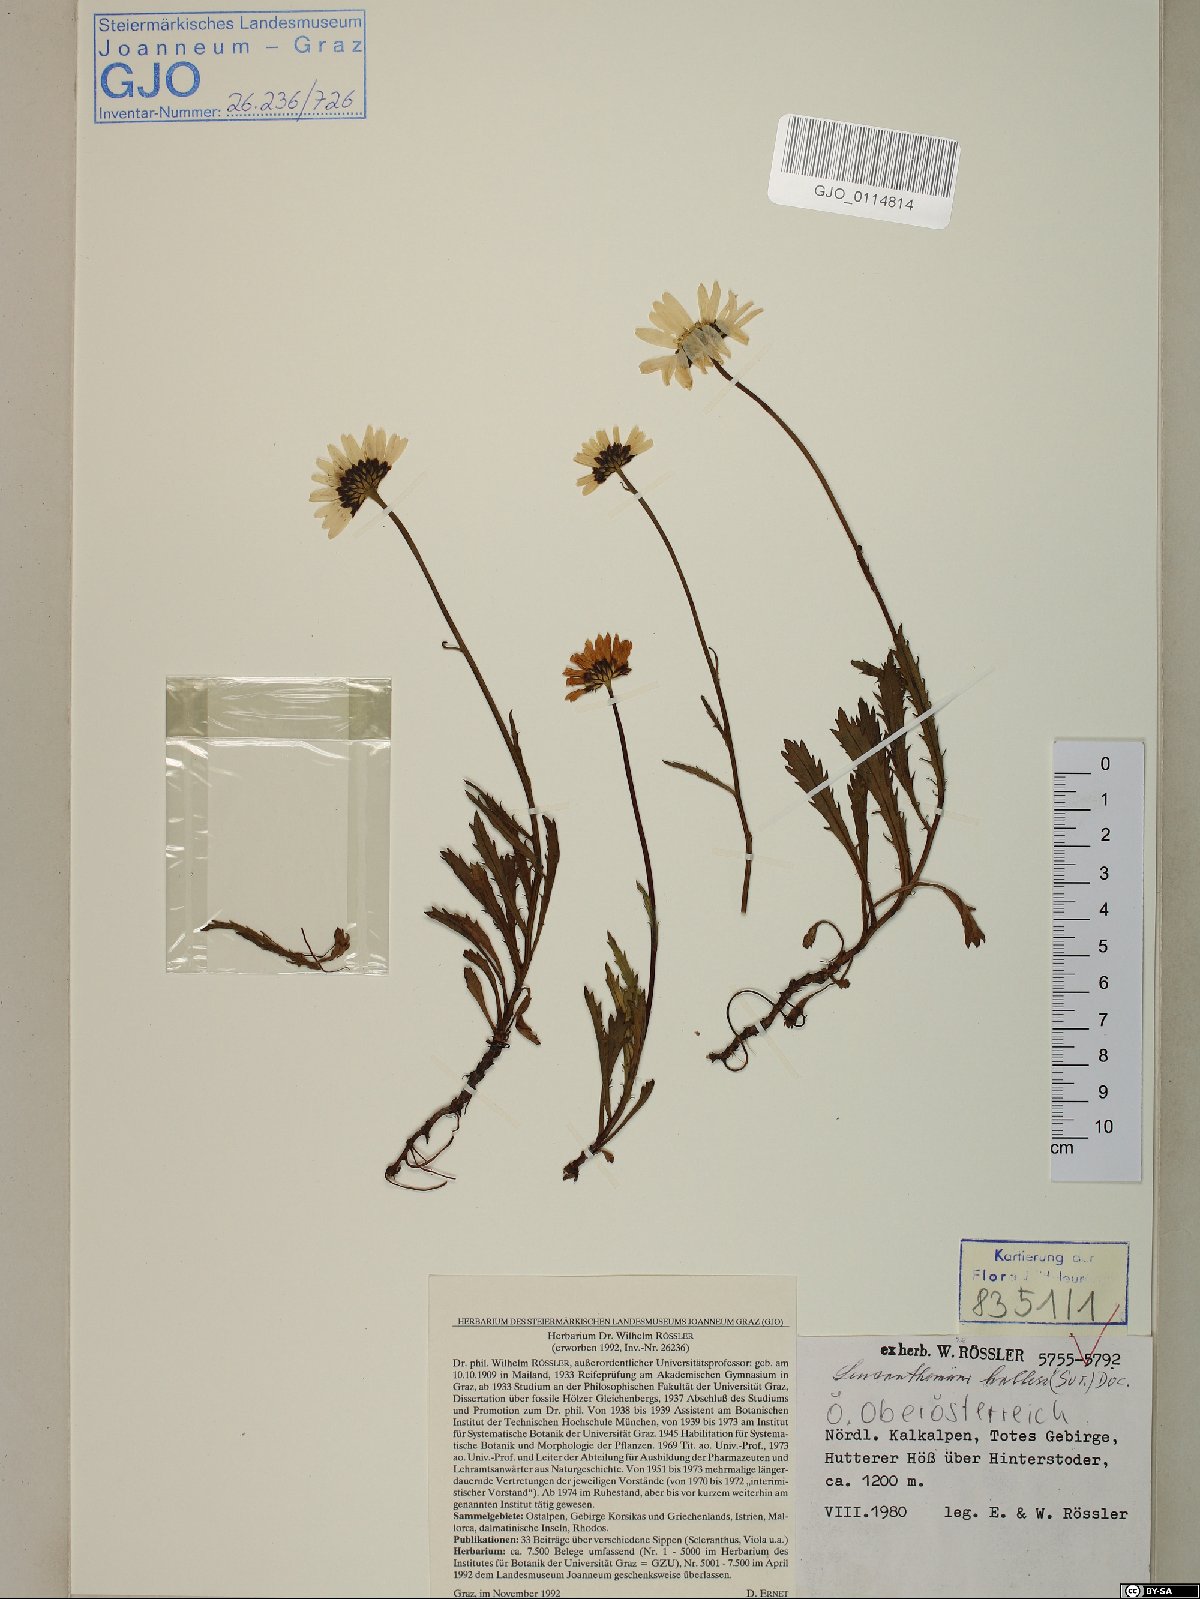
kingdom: Plantae
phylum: Tracheophyta
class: Magnoliopsida
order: Asterales
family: Asteraceae
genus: Leucanthemum
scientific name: Leucanthemum halleri
